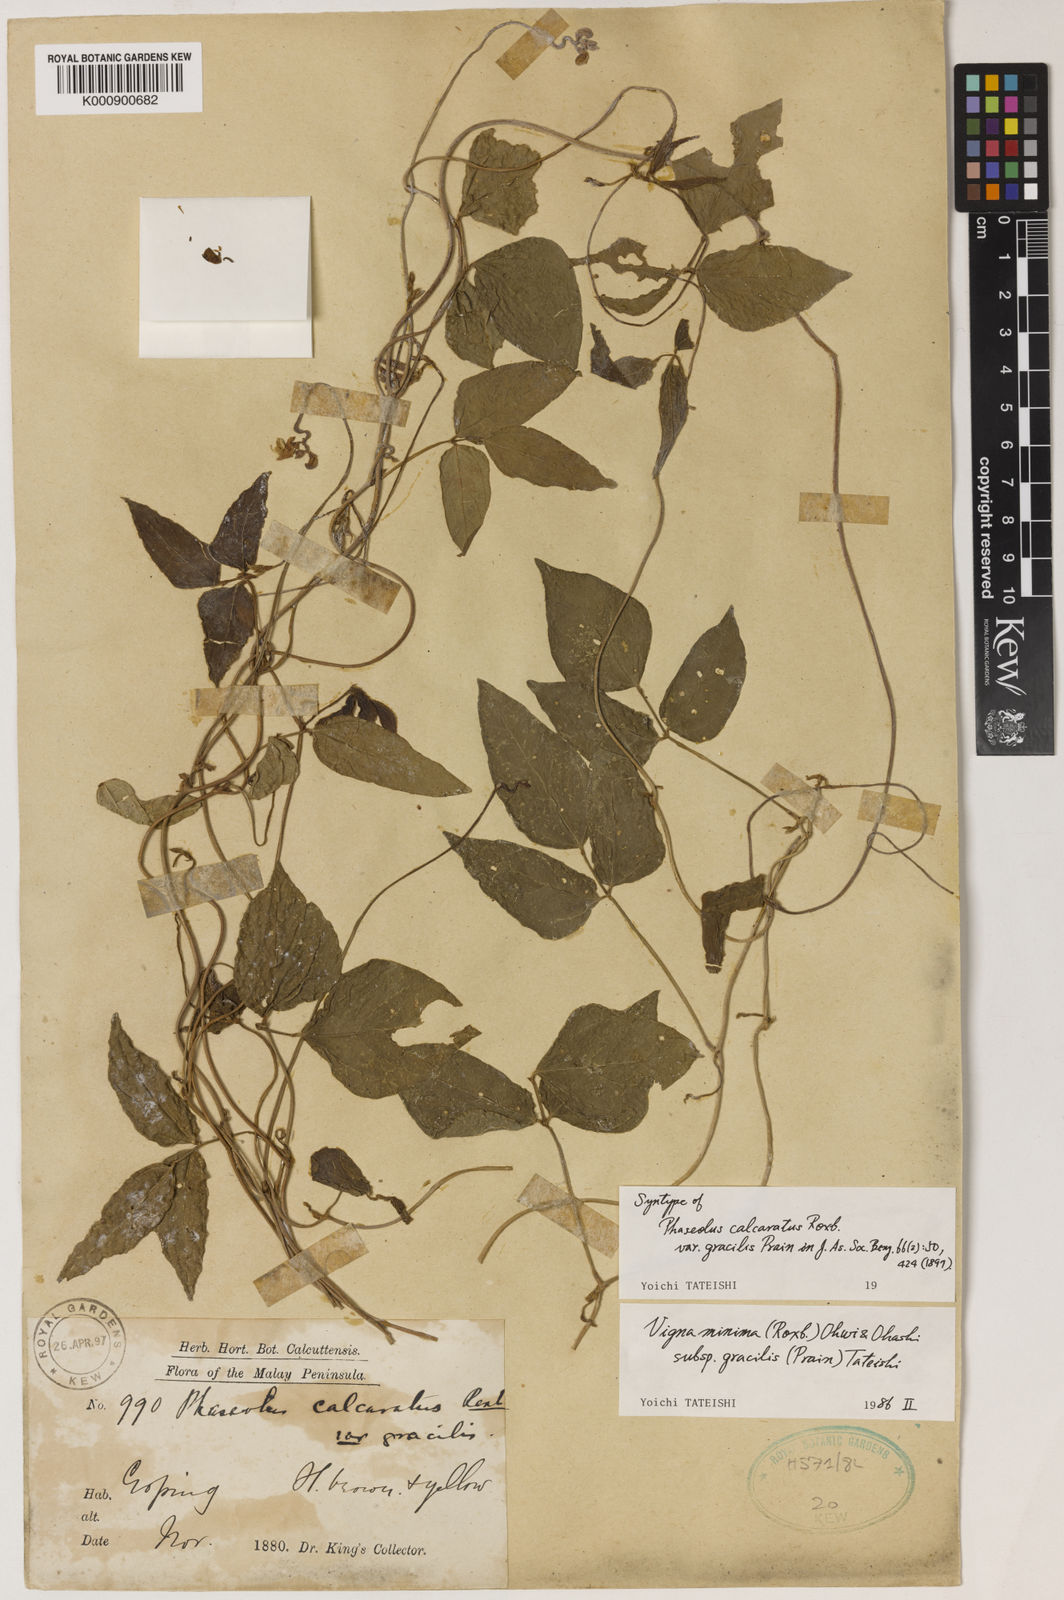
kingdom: Plantae
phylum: Tracheophyta
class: Magnoliopsida
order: Fabales
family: Fabaceae
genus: Vigna
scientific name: Vigna minima
